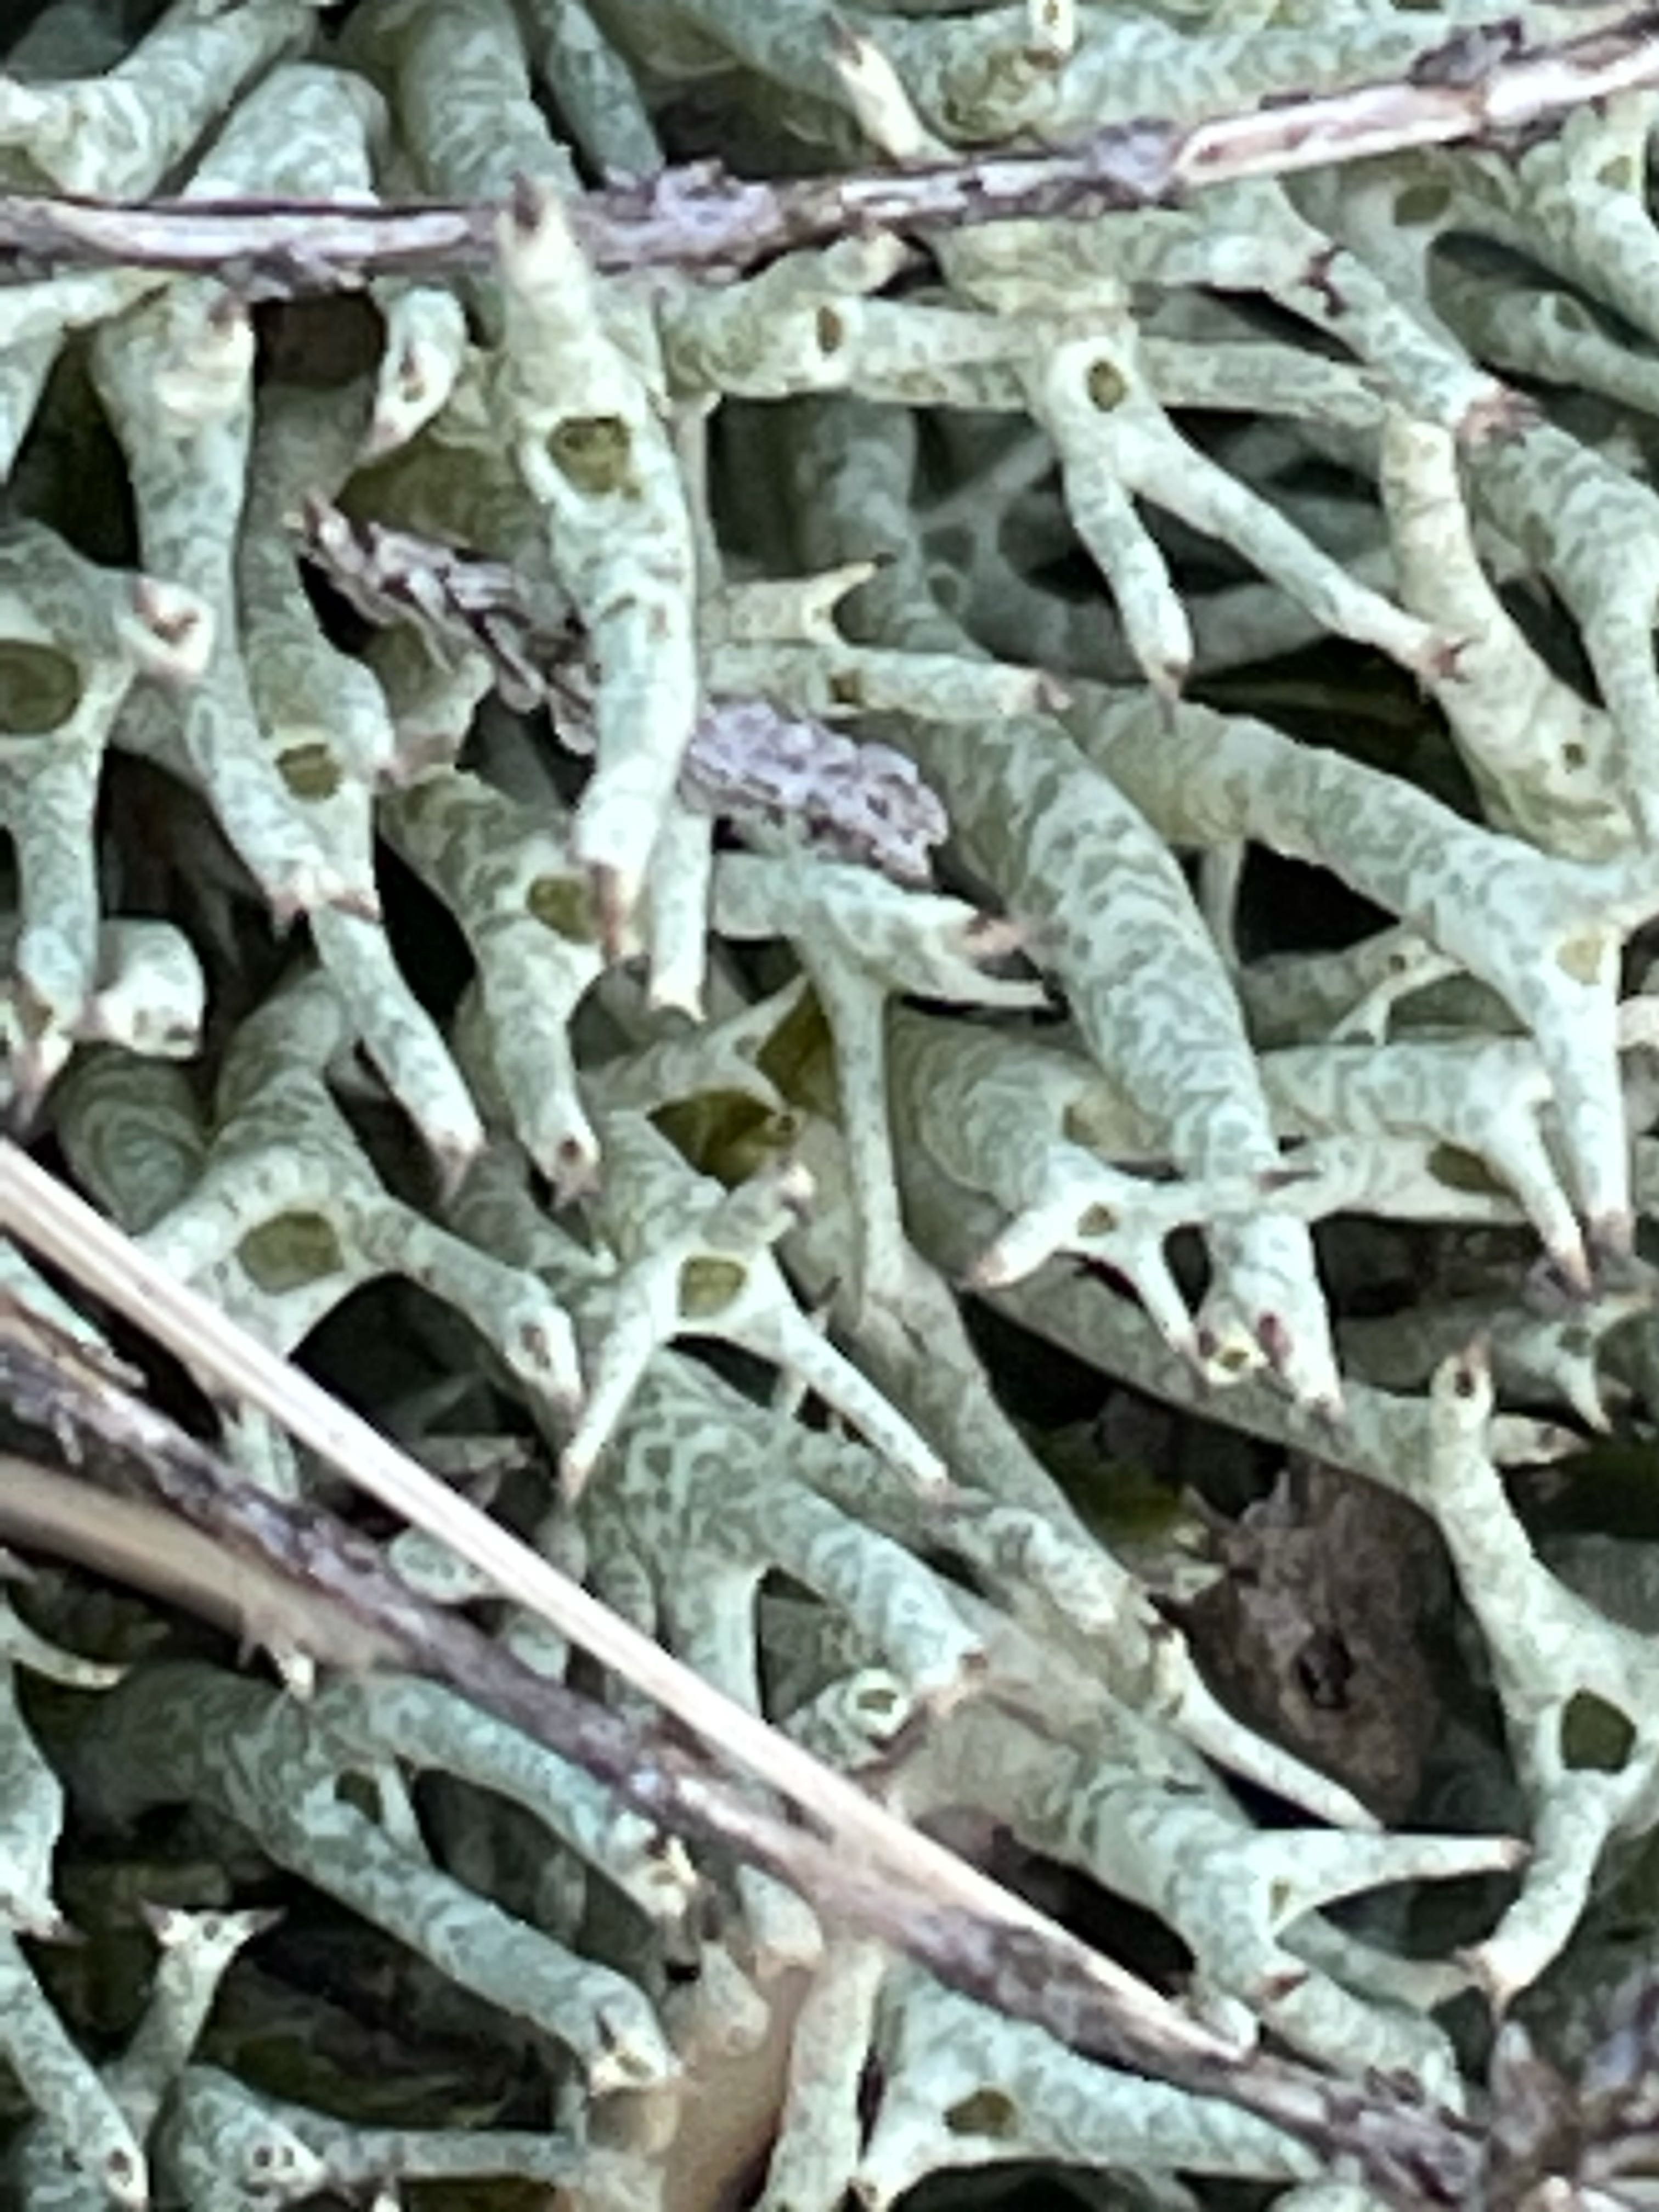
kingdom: Fungi
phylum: Ascomycota
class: Lecanoromycetes
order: Lecanorales
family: Cladoniaceae
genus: Cladonia
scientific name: Cladonia uncialis
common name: pigget bægerlav
